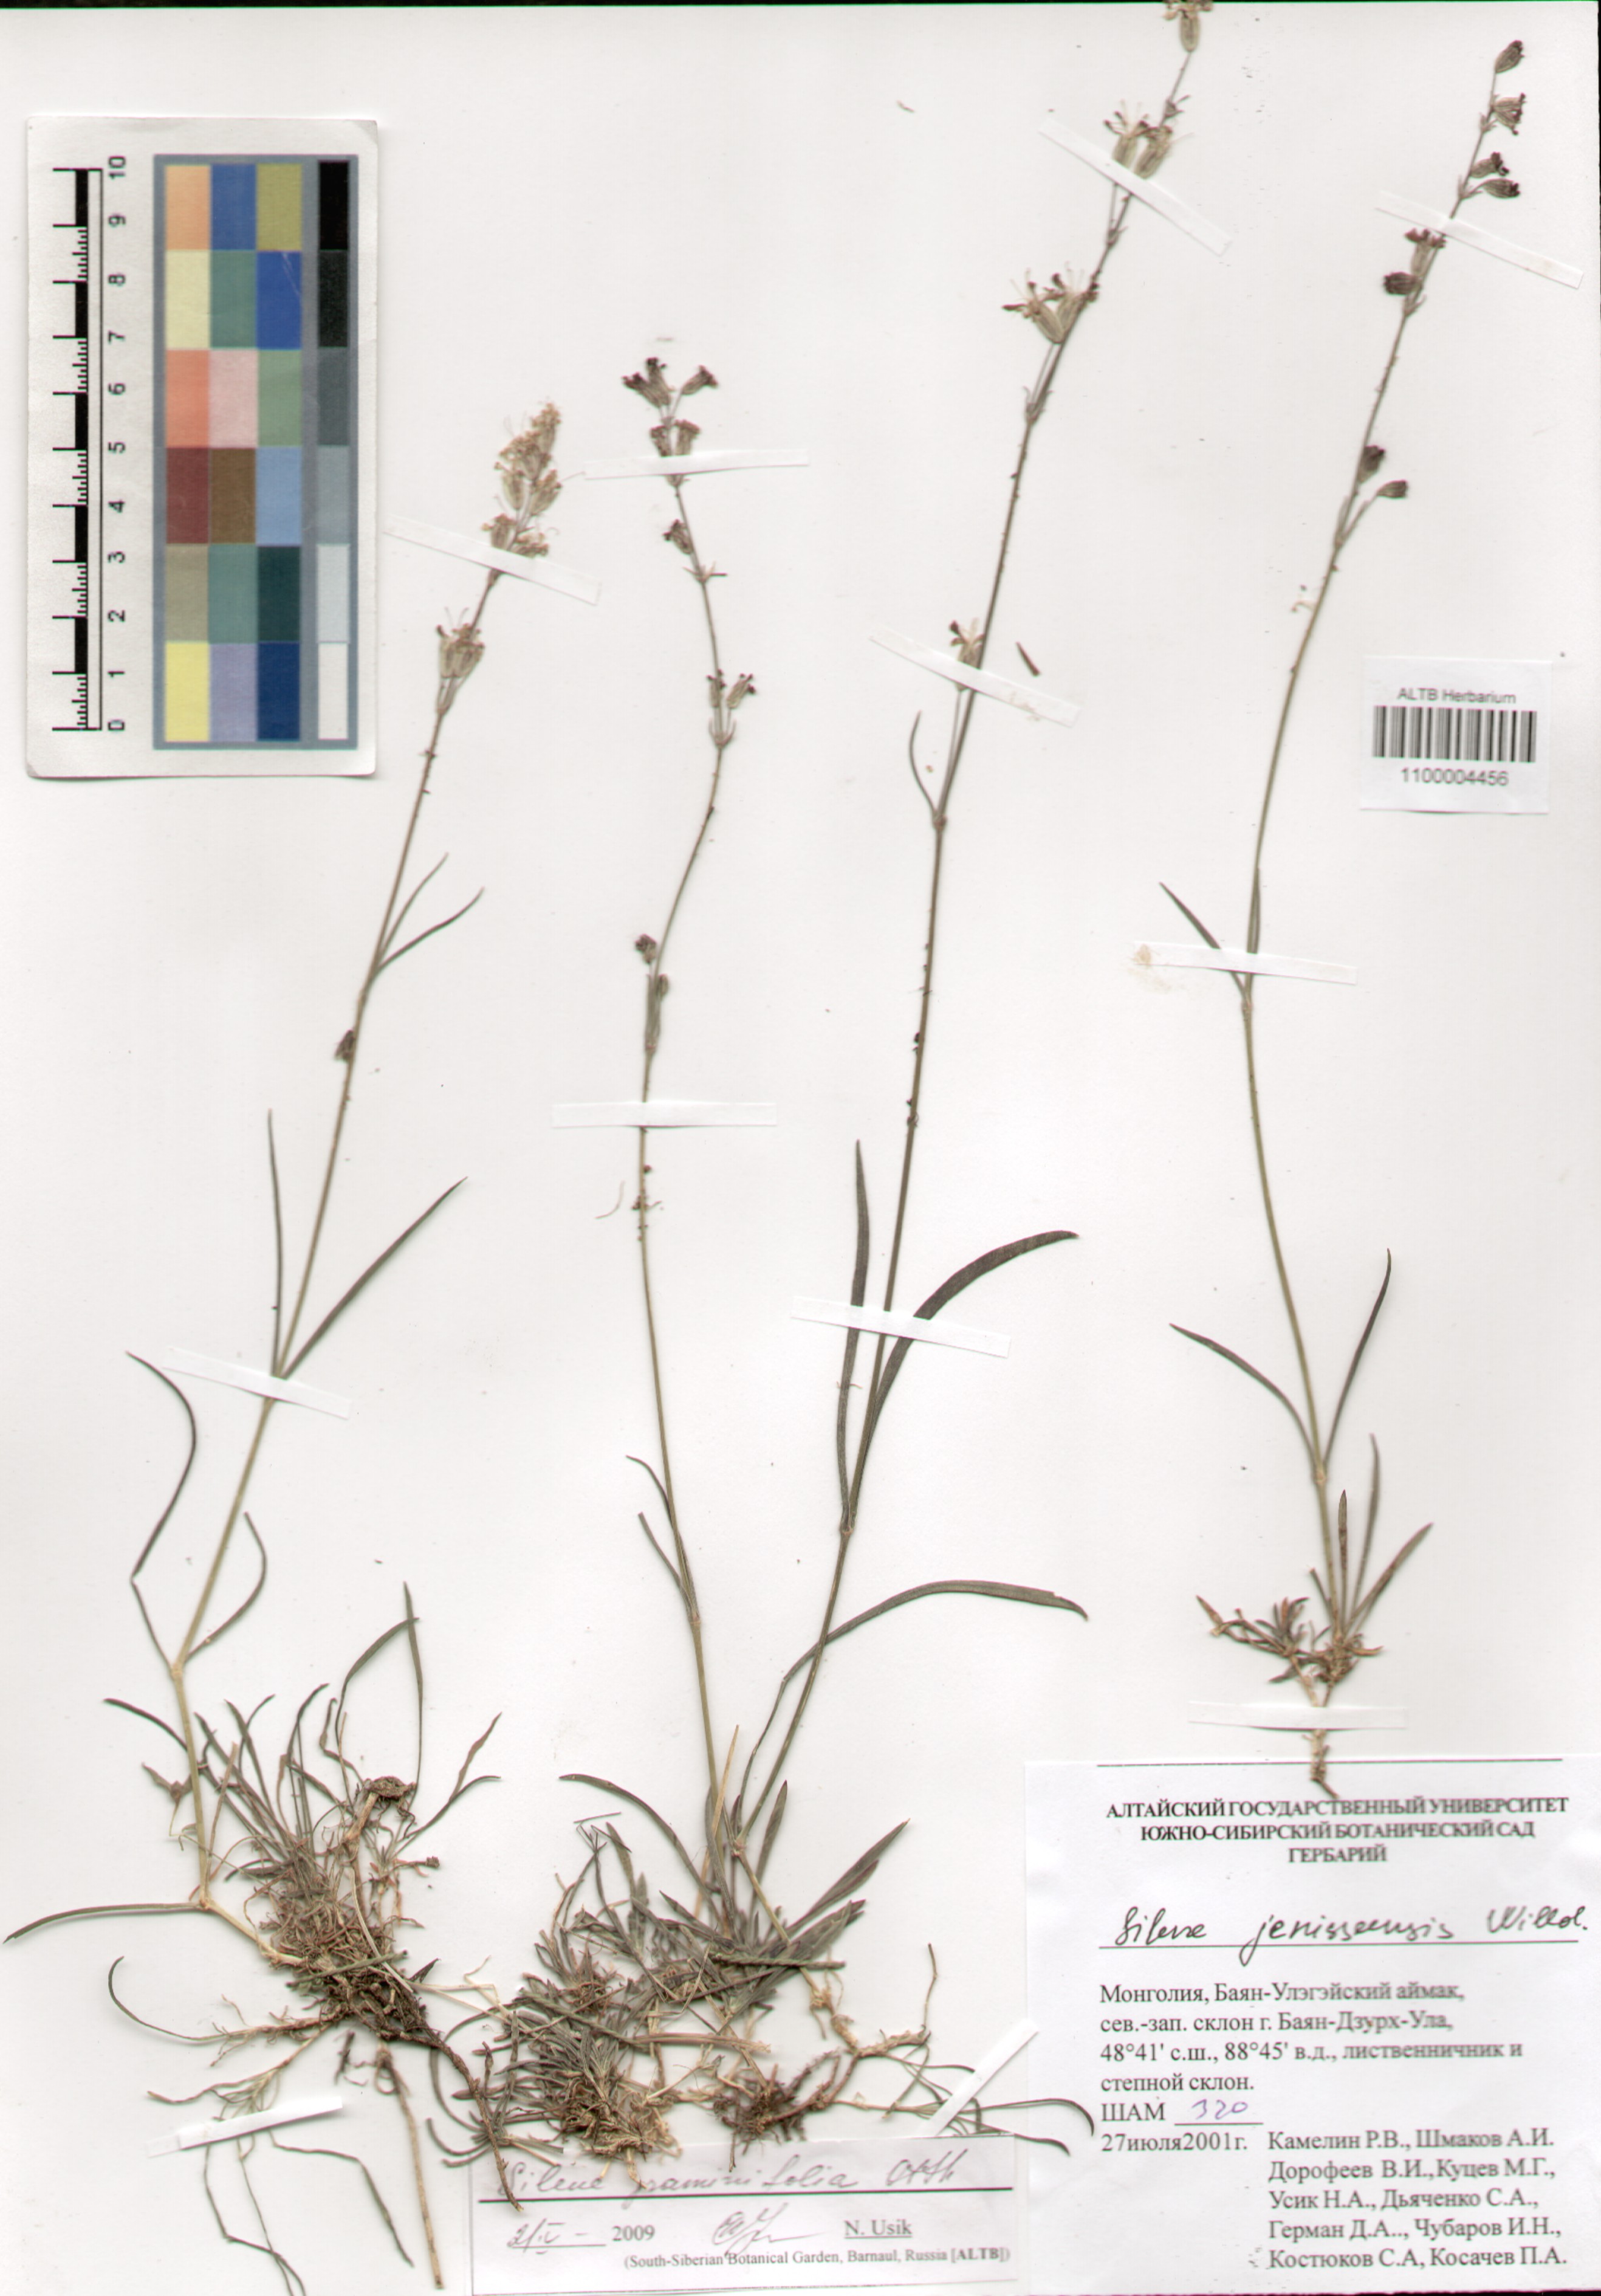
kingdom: Plantae
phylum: Tracheophyta
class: Magnoliopsida
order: Caryophyllales
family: Caryophyllaceae
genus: Silene
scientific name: Silene graminifolia
